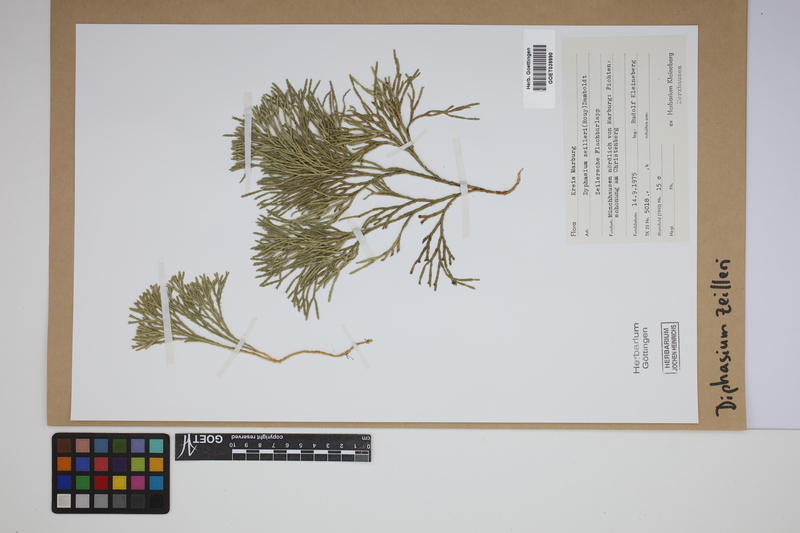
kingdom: Plantae
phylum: Tracheophyta
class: Lycopodiopsida
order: Lycopodiales
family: Lycopodiaceae
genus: Diphasiastrum
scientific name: Diphasiastrum zeilleri
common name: Zeiller's clubmoss
